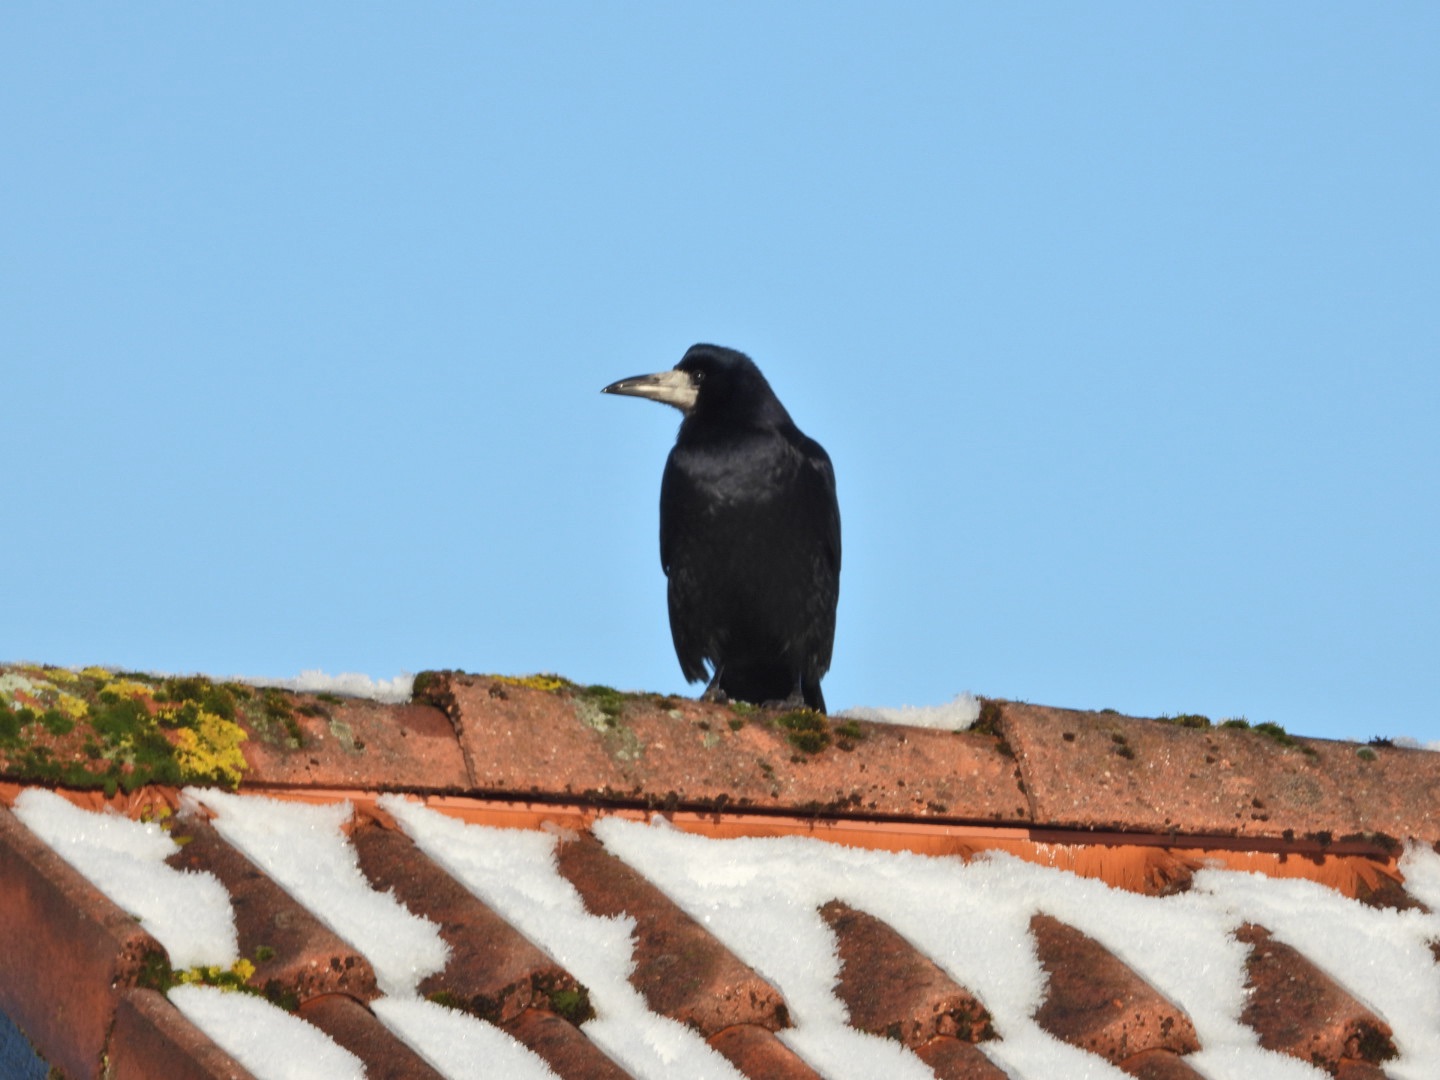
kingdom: Animalia
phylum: Chordata
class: Aves
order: Passeriformes
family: Corvidae
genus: Corvus
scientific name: Corvus frugilegus
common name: Råge
